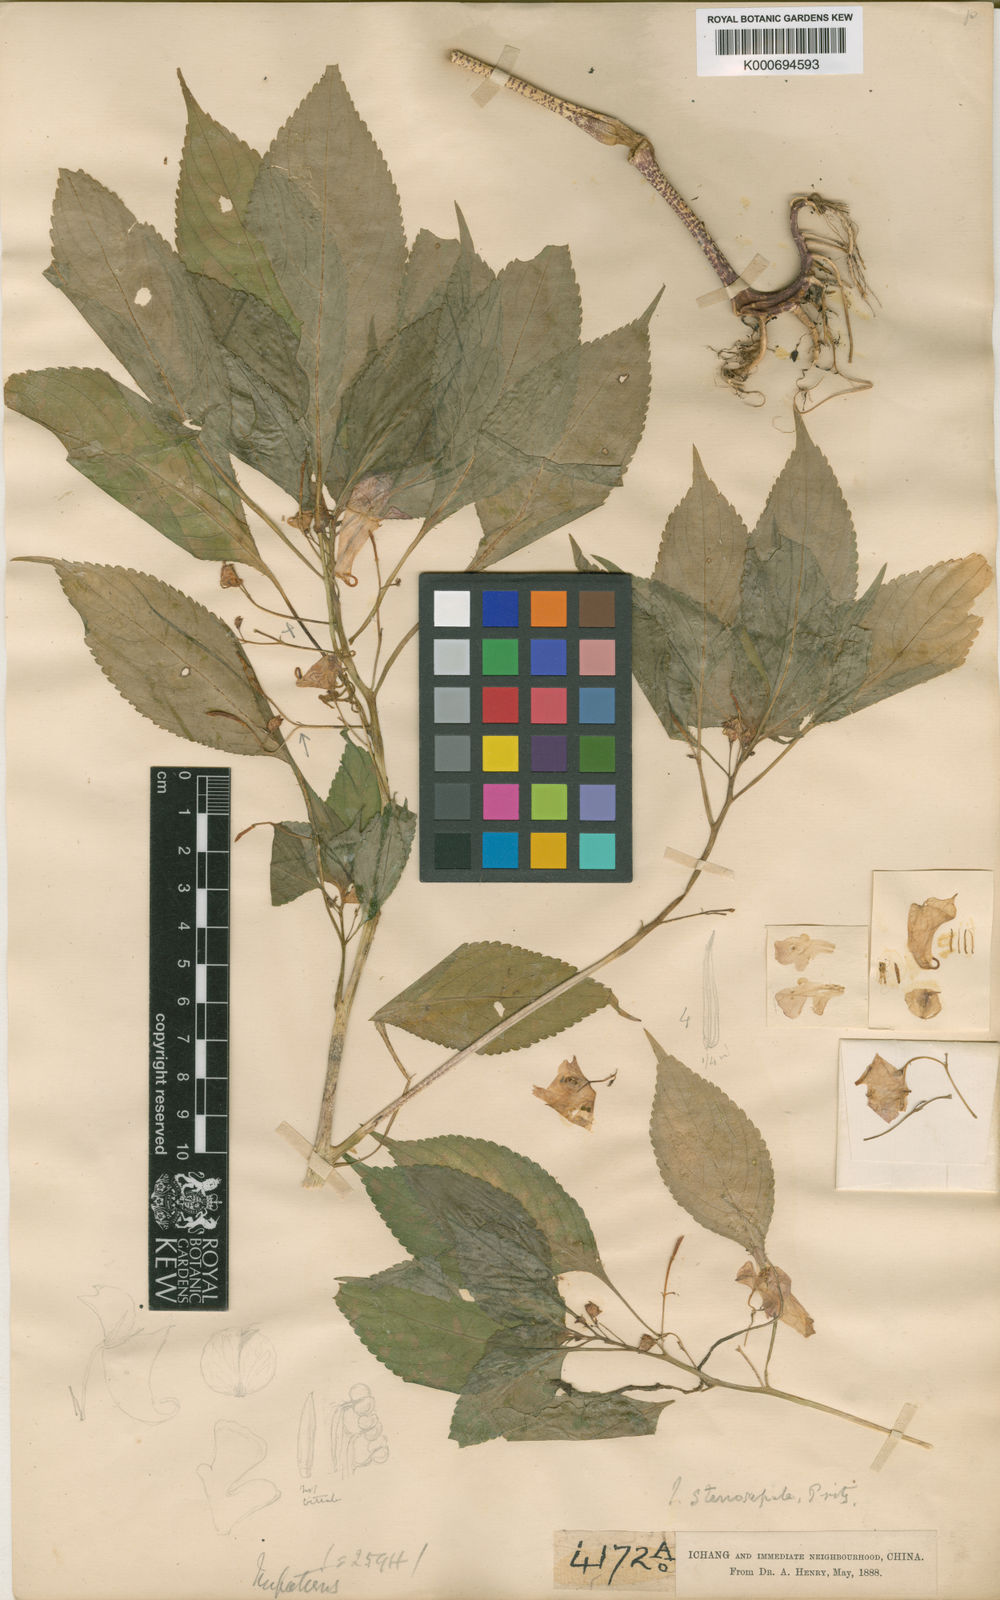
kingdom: Plantae
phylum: Tracheophyta
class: Magnoliopsida
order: Ericales
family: Balsaminaceae
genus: Impatiens
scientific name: Impatiens stenosepala
